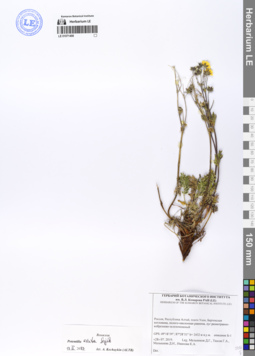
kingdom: Plantae
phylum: Tracheophyta
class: Magnoliopsida
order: Rosales
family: Rosaceae
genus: Potentilla
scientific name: Potentilla exuta
